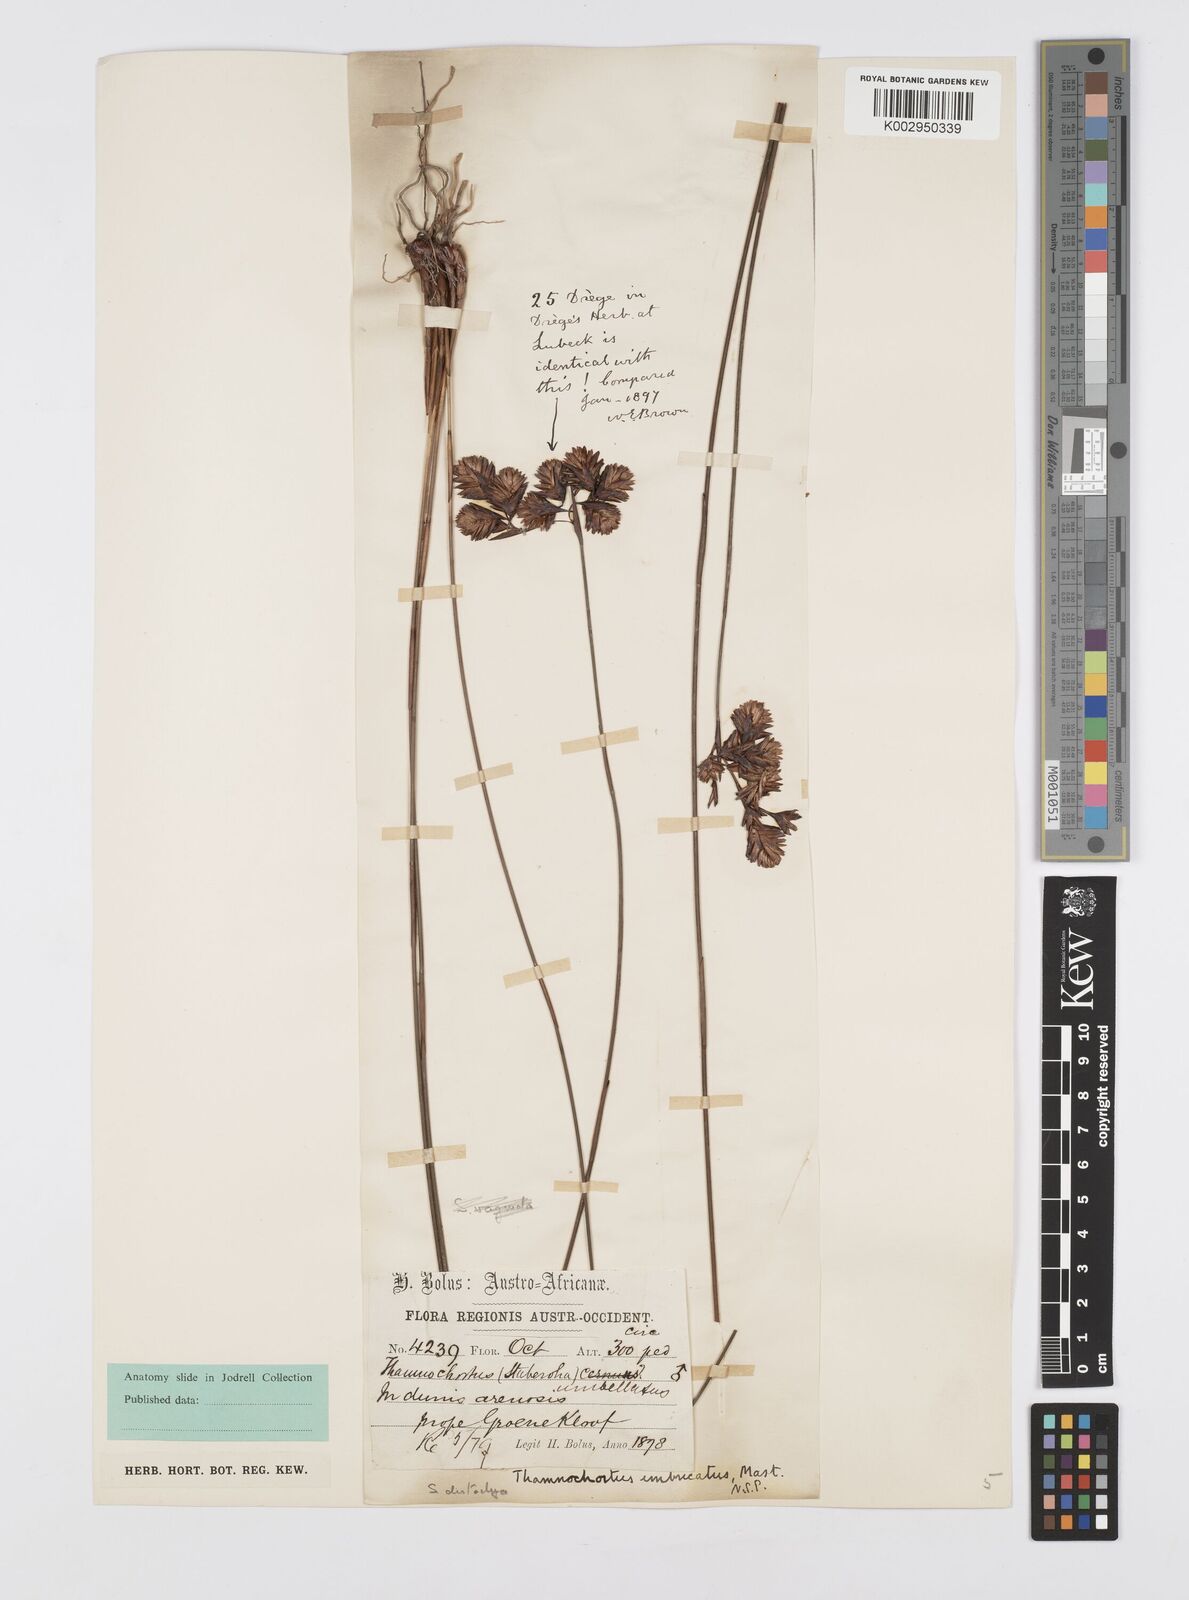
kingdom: Plantae
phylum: Tracheophyta
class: Liliopsida
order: Poales
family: Restionaceae
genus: Staberoha
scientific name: Staberoha distachyos
